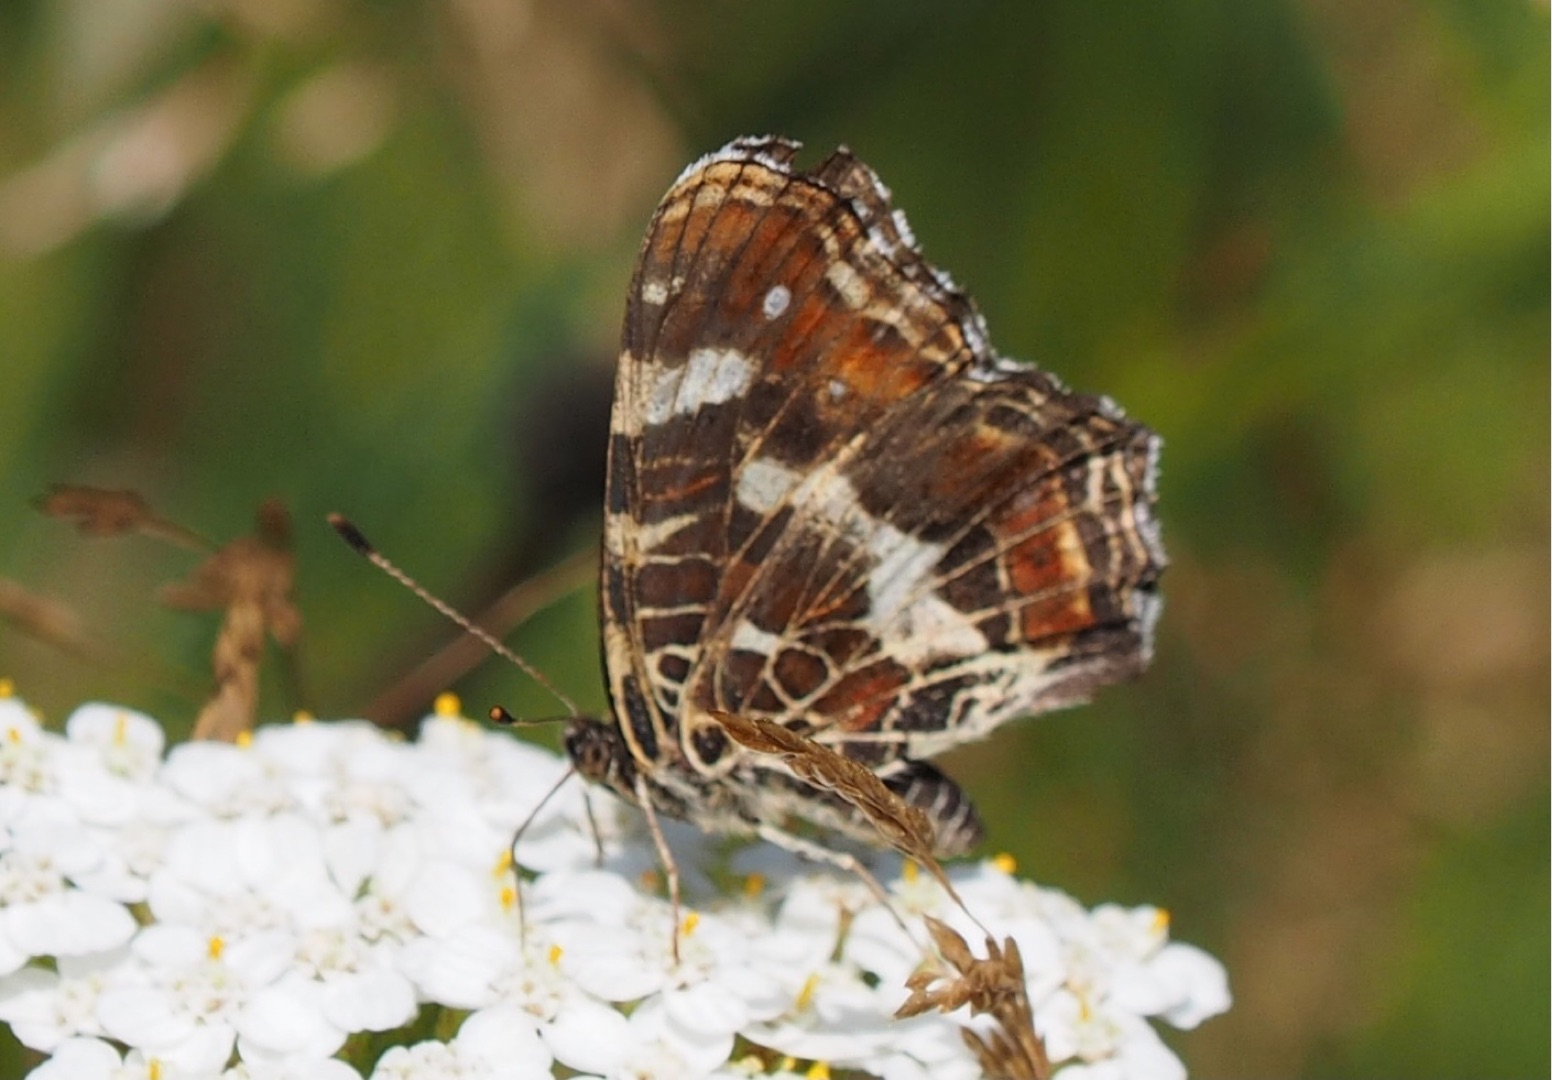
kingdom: Animalia
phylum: Arthropoda
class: Insecta
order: Lepidoptera
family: Nymphalidae
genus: Araschnia
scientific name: Araschnia levana
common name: Nældesommerfugl
